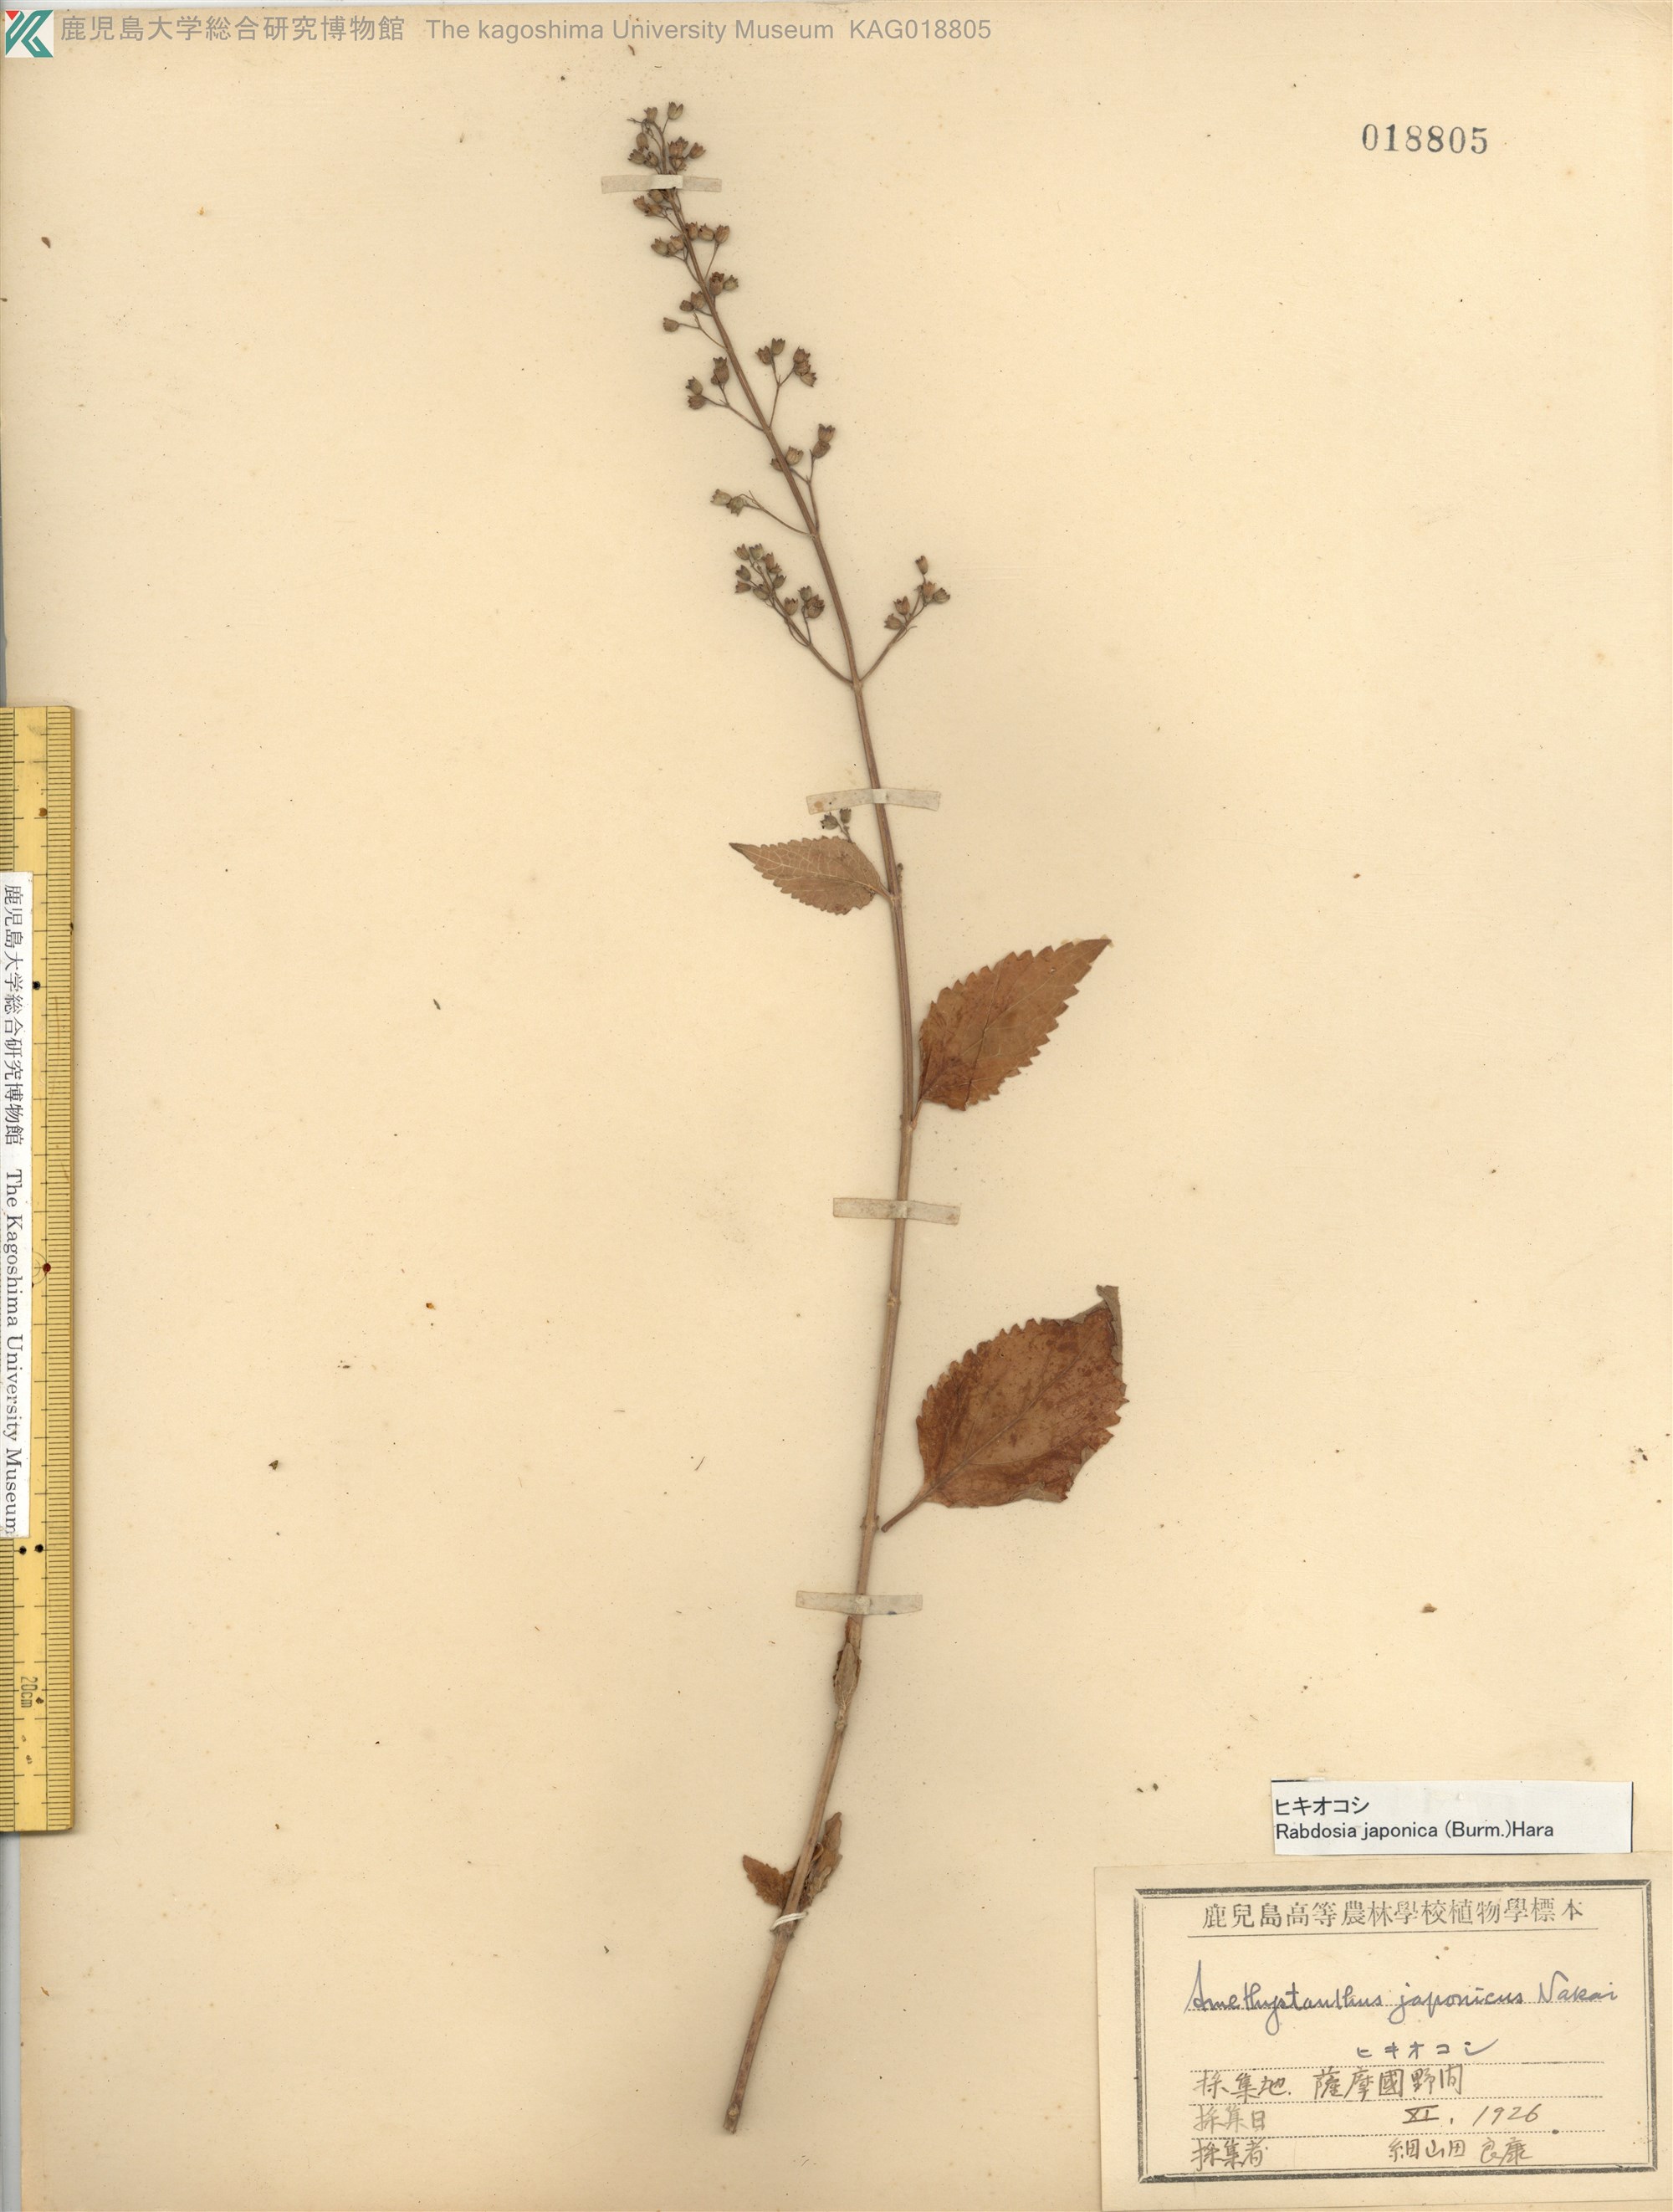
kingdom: Plantae
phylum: Tracheophyta
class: Magnoliopsida
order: Lamiales
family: Lamiaceae
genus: Isodon
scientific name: Isodon japonicus
